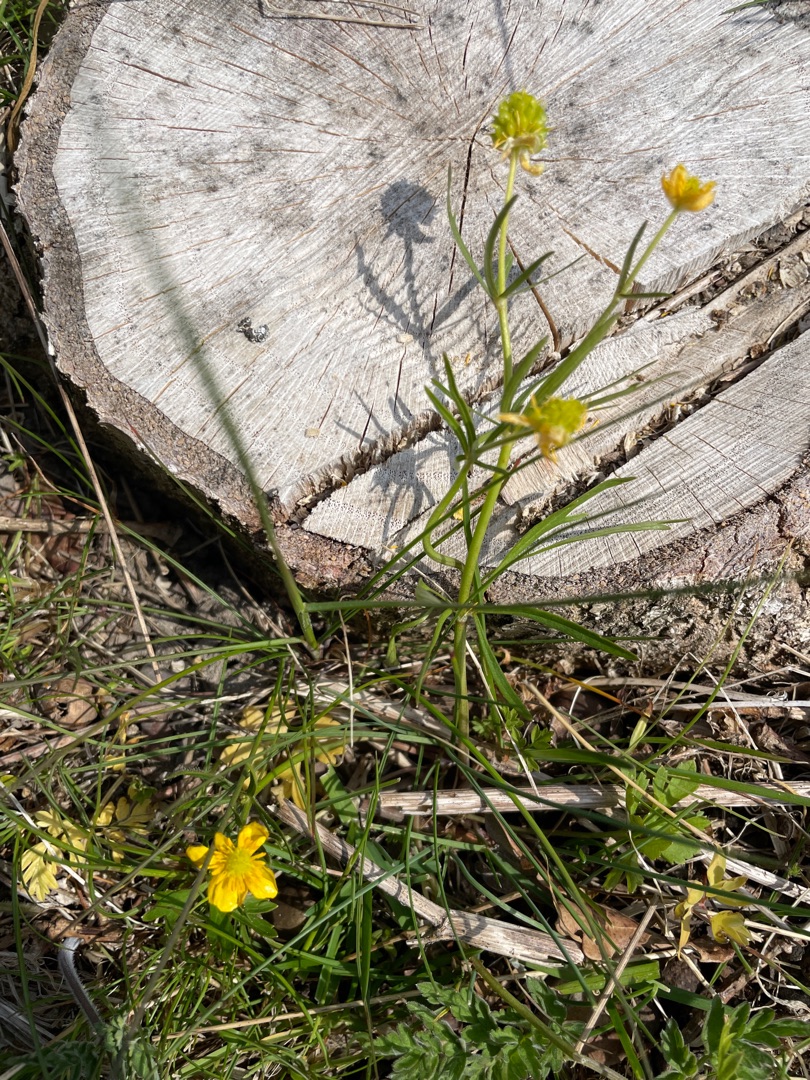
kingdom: Plantae
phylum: Tracheophyta
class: Magnoliopsida
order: Ranunculales
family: Ranunculaceae
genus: Ranunculus
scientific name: Ranunculus auricomus
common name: Nyrebladet ranunkel
